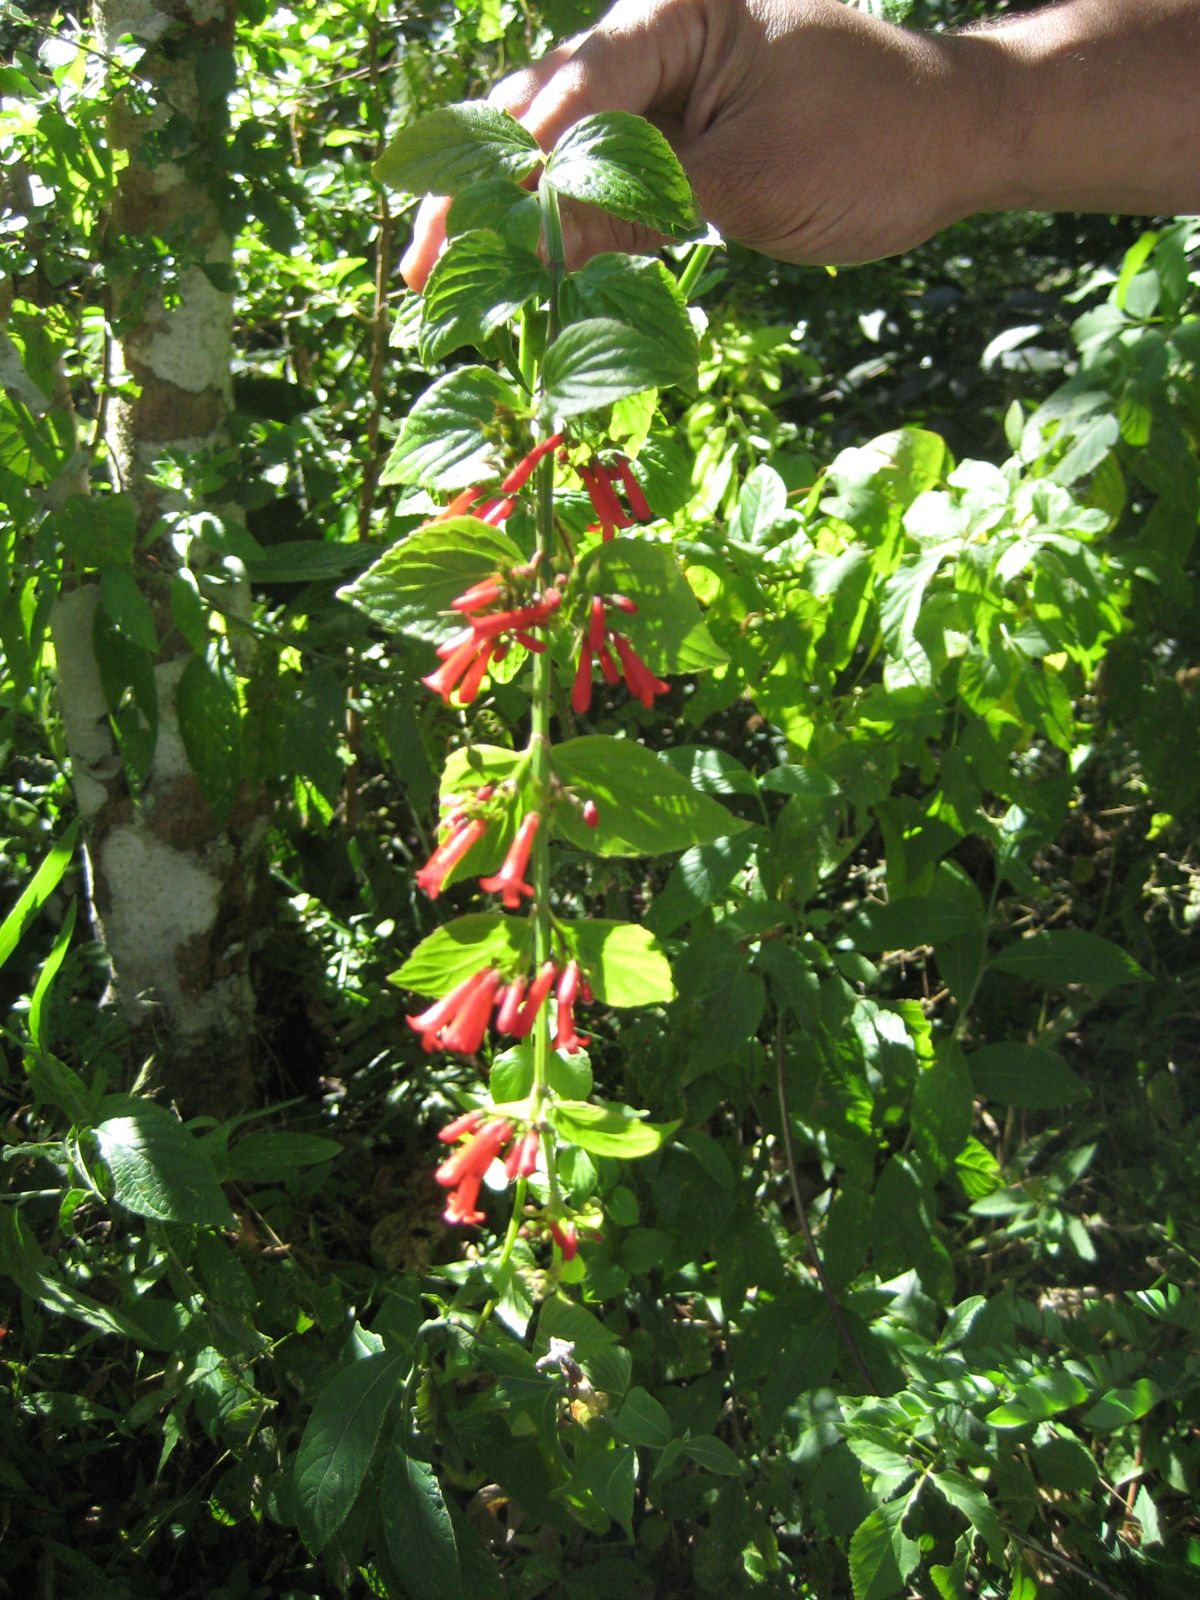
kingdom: Plantae
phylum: Tracheophyta
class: Magnoliopsida
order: Lamiales
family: Plantaginaceae
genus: Russelia
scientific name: Russelia sarmentosa
